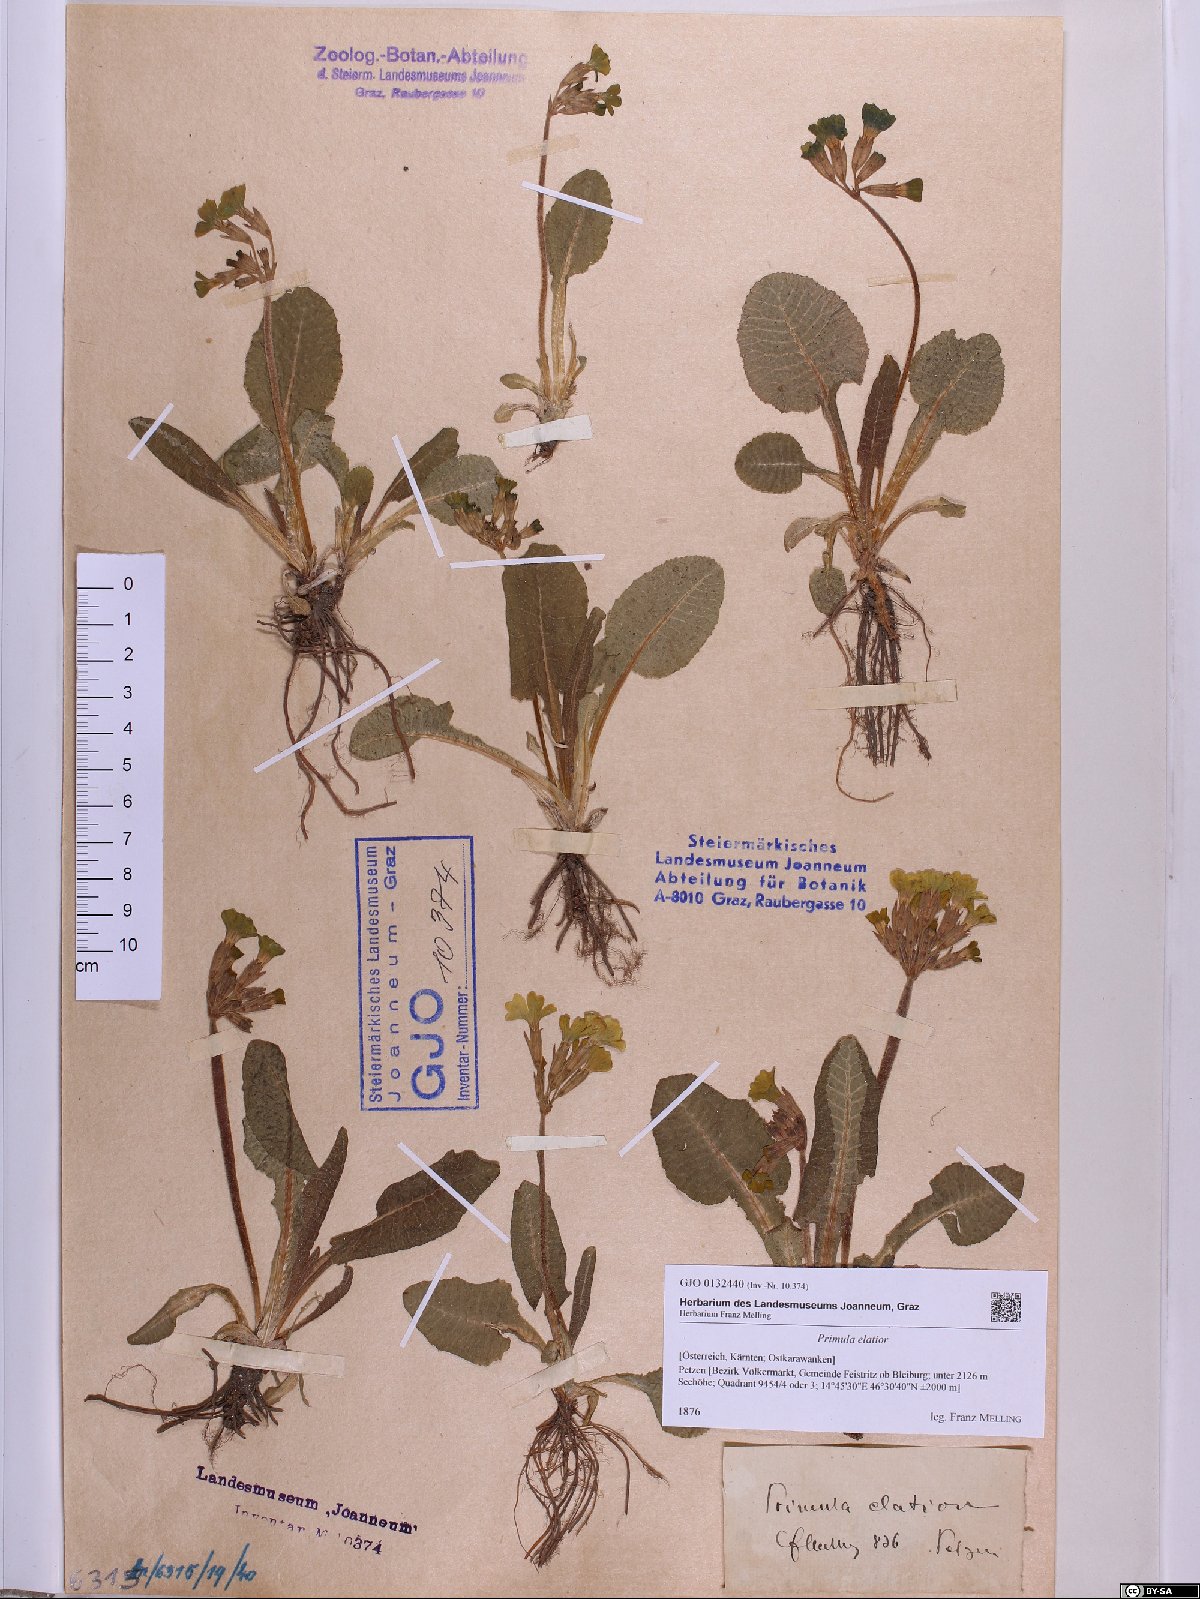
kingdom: Plantae
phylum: Tracheophyta
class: Magnoliopsida
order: Ericales
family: Primulaceae
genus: Primula
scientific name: Primula elatior
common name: Oxlip
